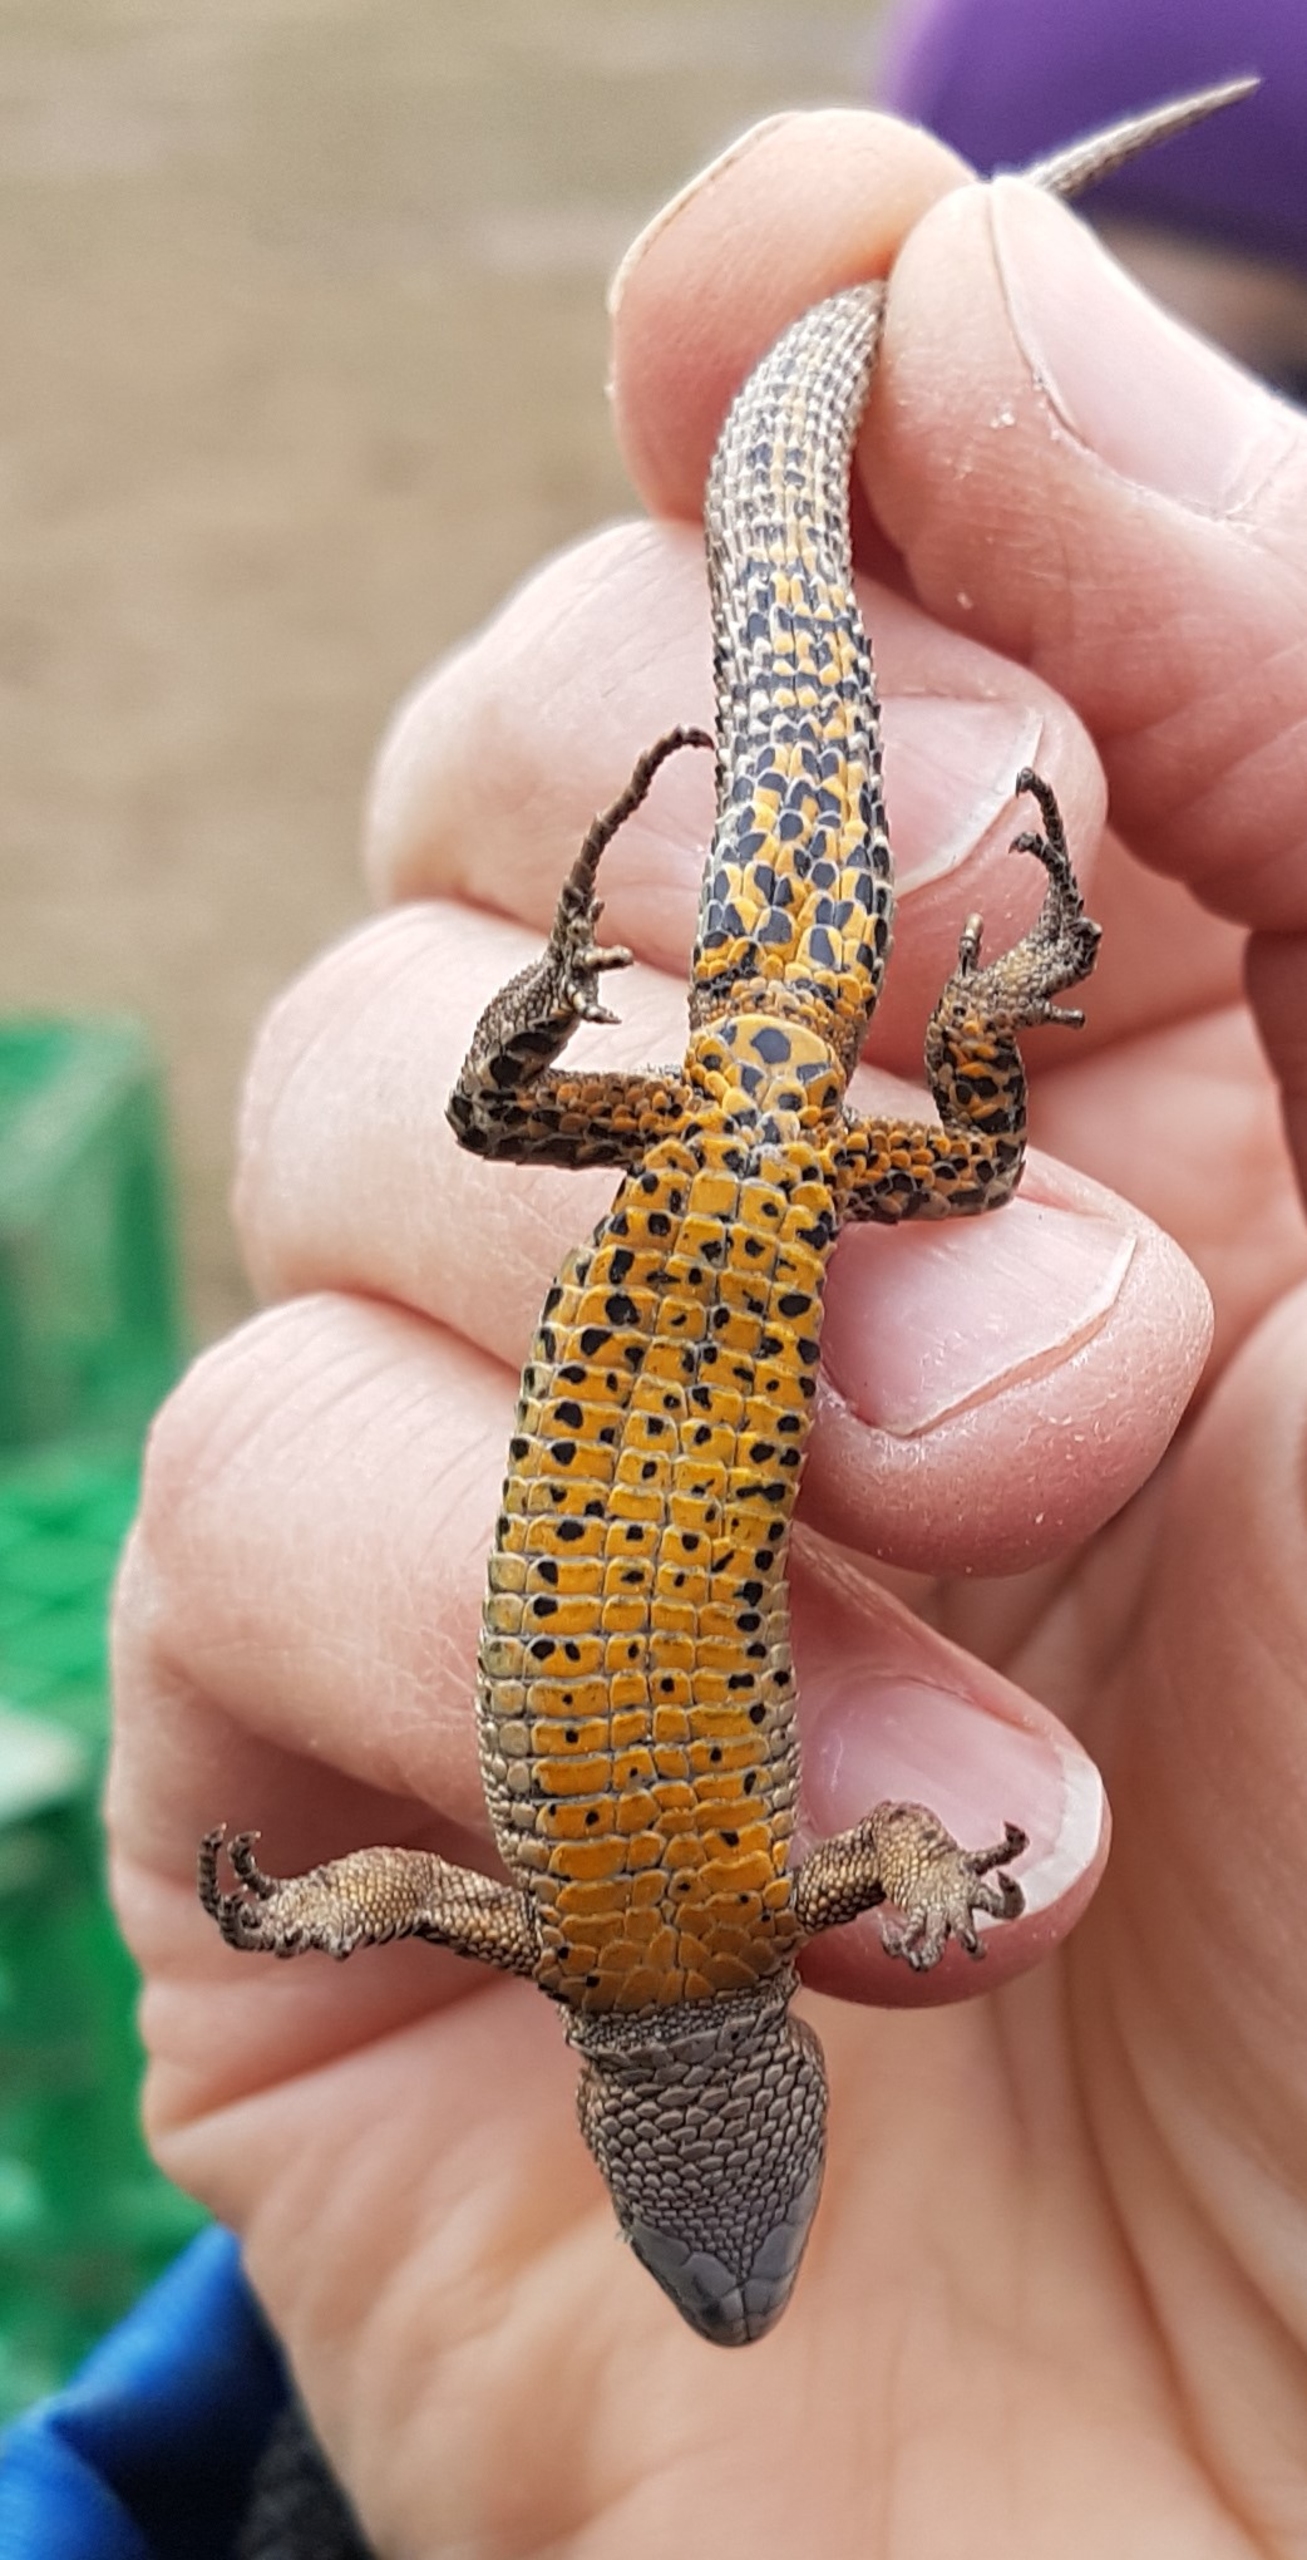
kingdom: Animalia
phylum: Chordata
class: Squamata
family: Lacertidae
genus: Zootoca
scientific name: Zootoca vivipara
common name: Skovfirben
